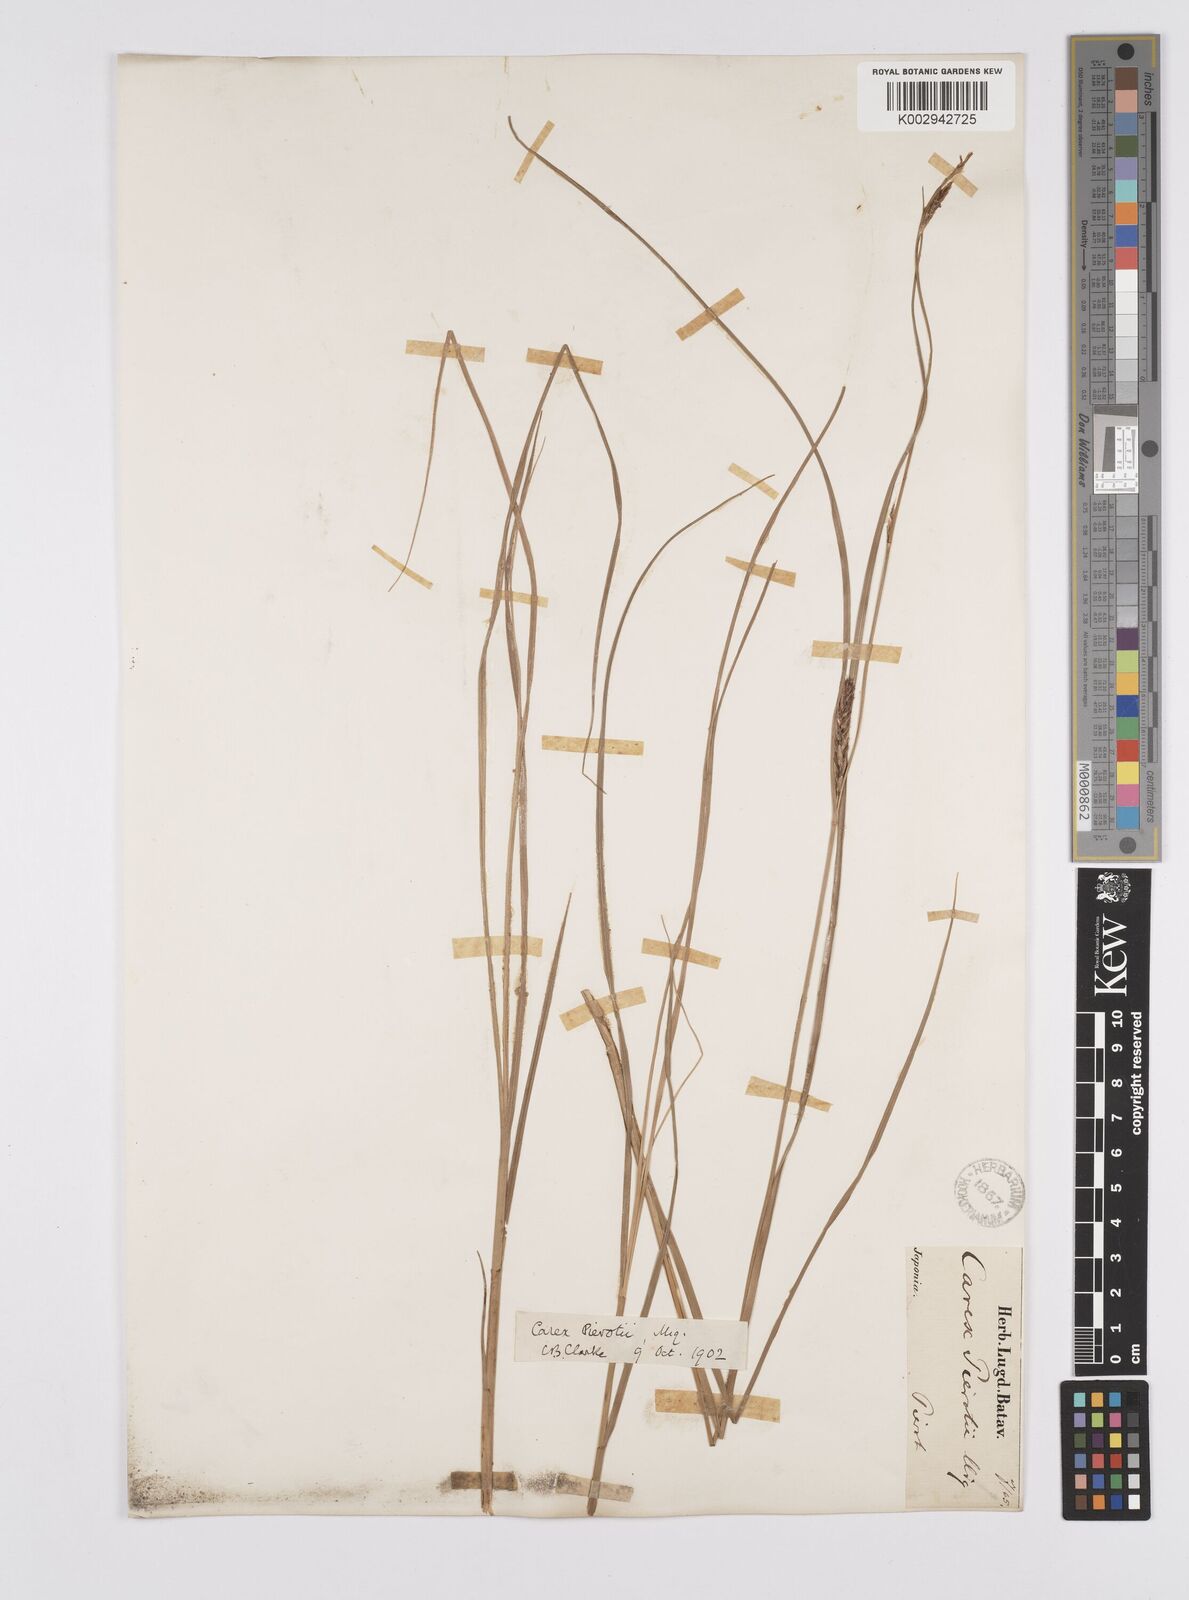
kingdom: Plantae
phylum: Tracheophyta
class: Liliopsida
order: Poales
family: Cyperaceae
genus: Carex
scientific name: Carex scabrifolia
